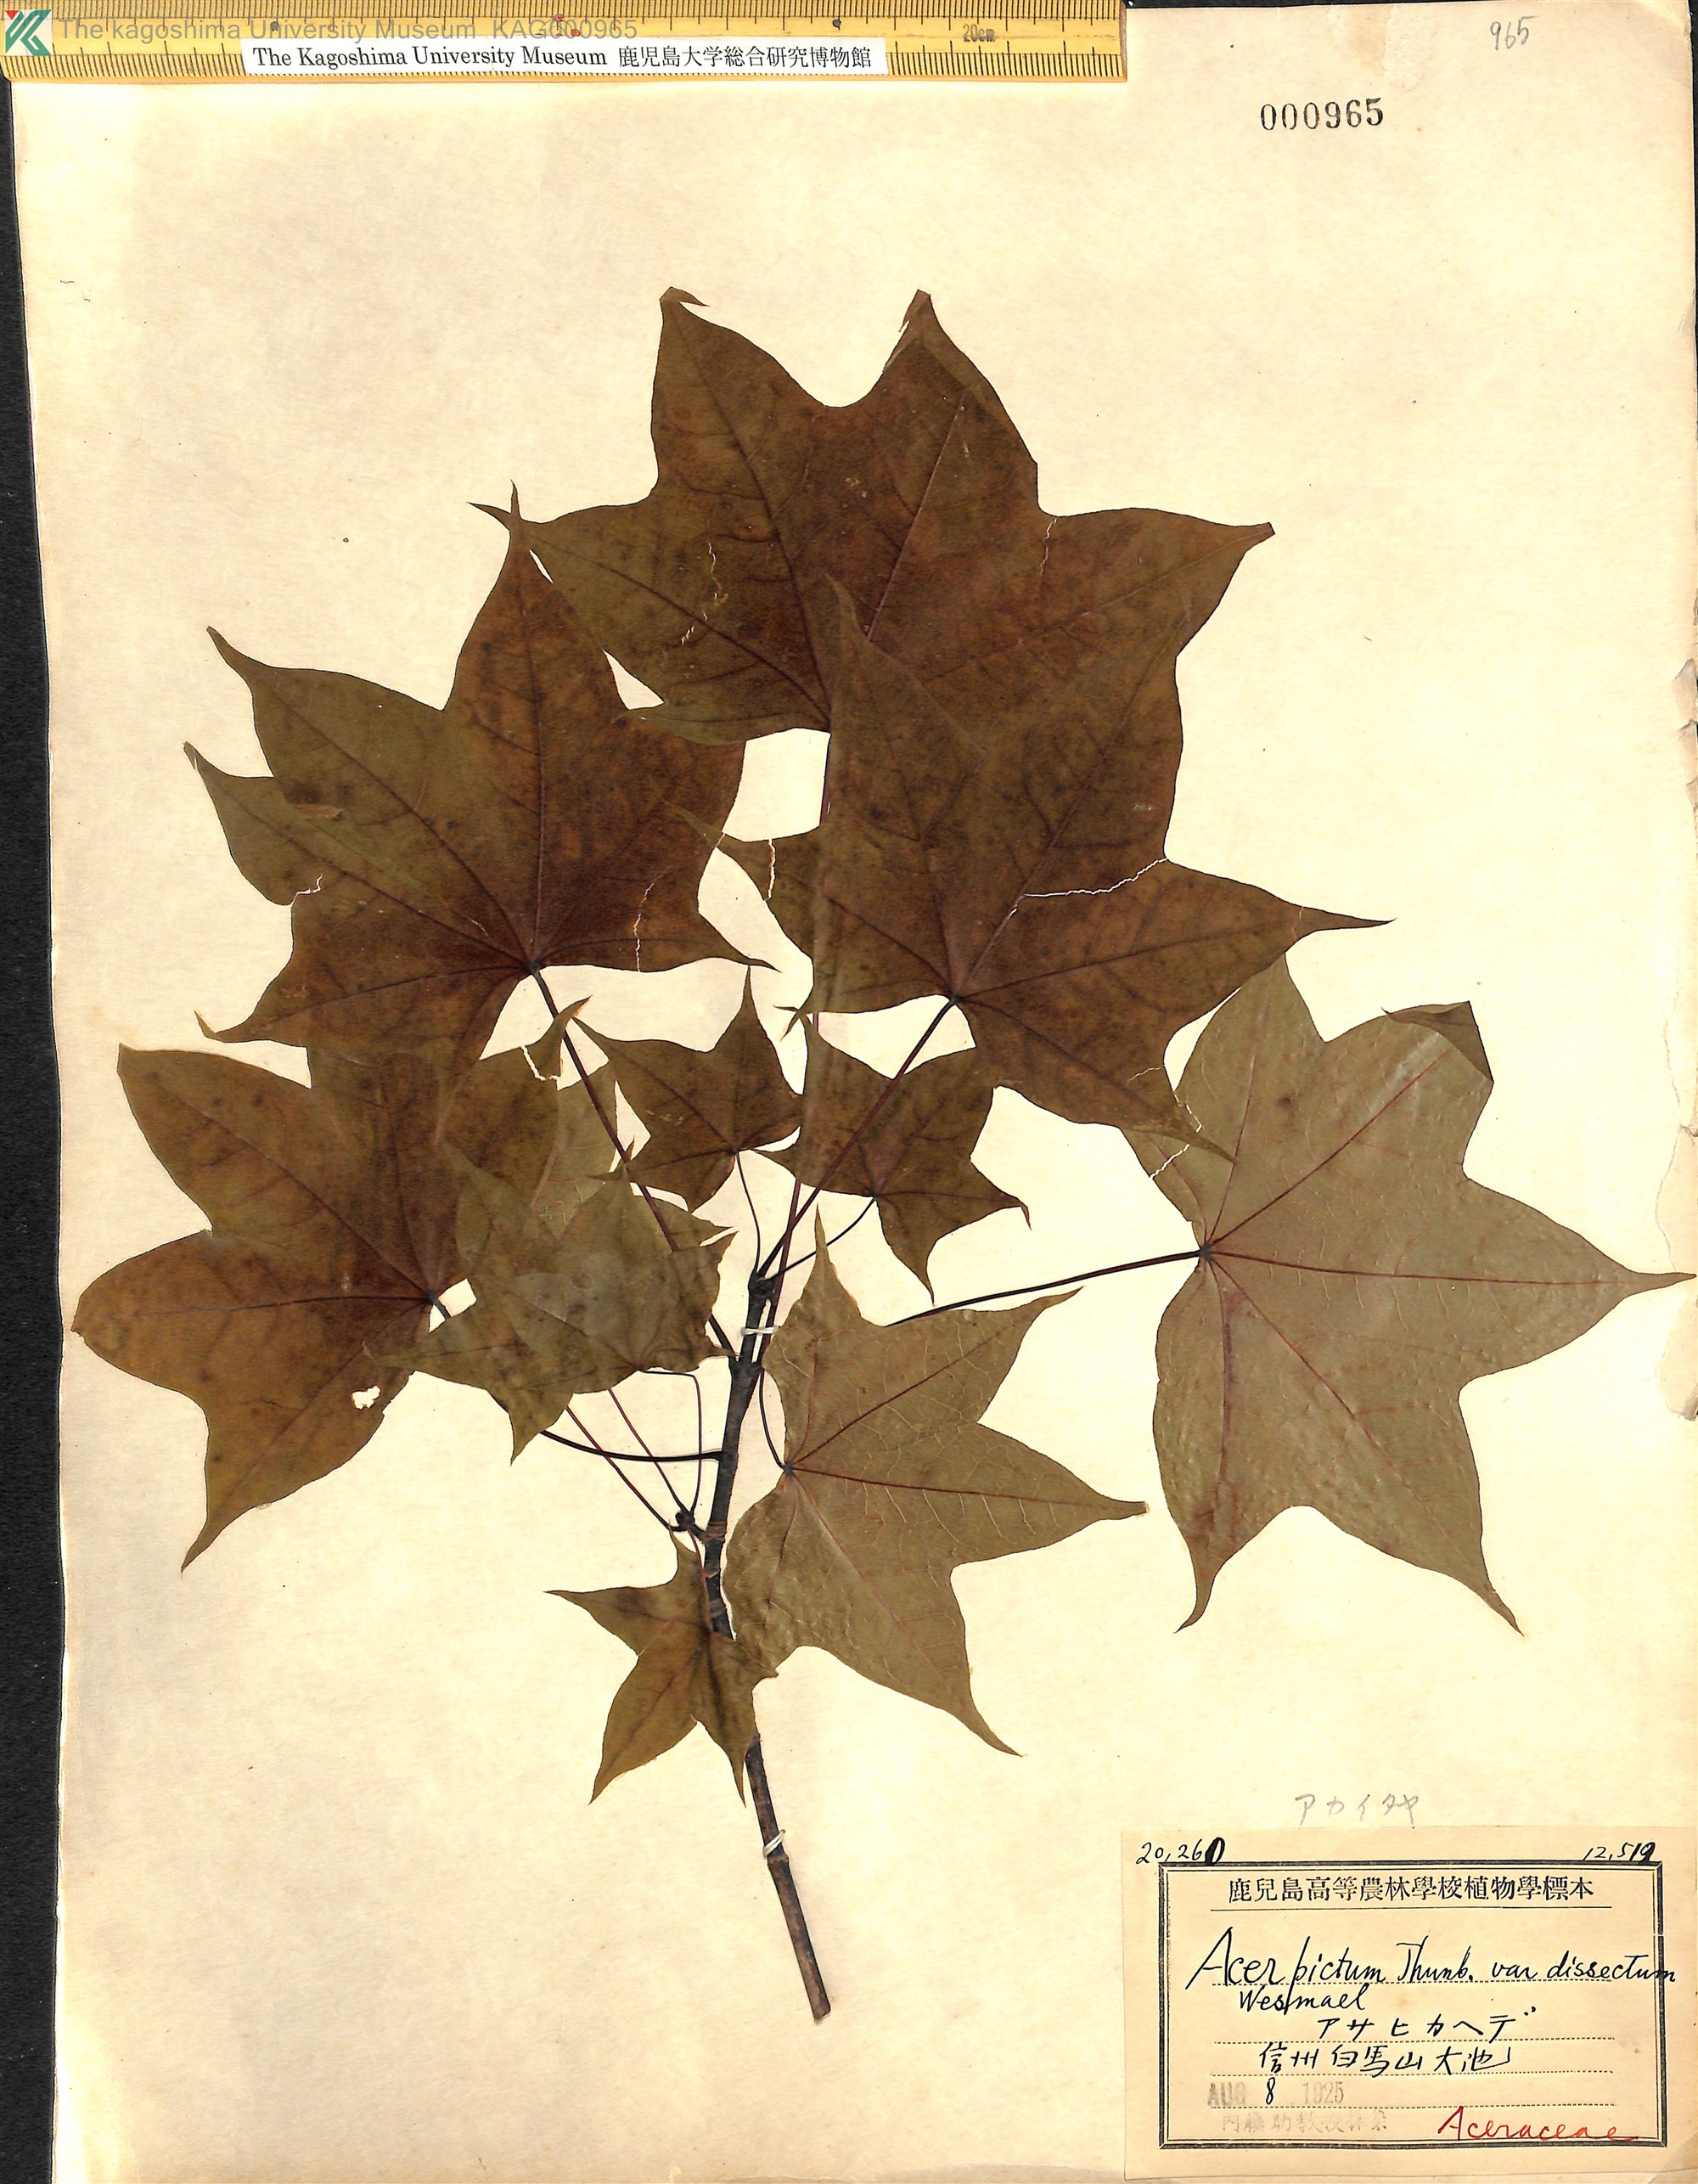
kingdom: Plantae
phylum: Tracheophyta
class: Magnoliopsida
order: Sapindales
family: Sapindaceae
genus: Acer
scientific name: Acer pictum
